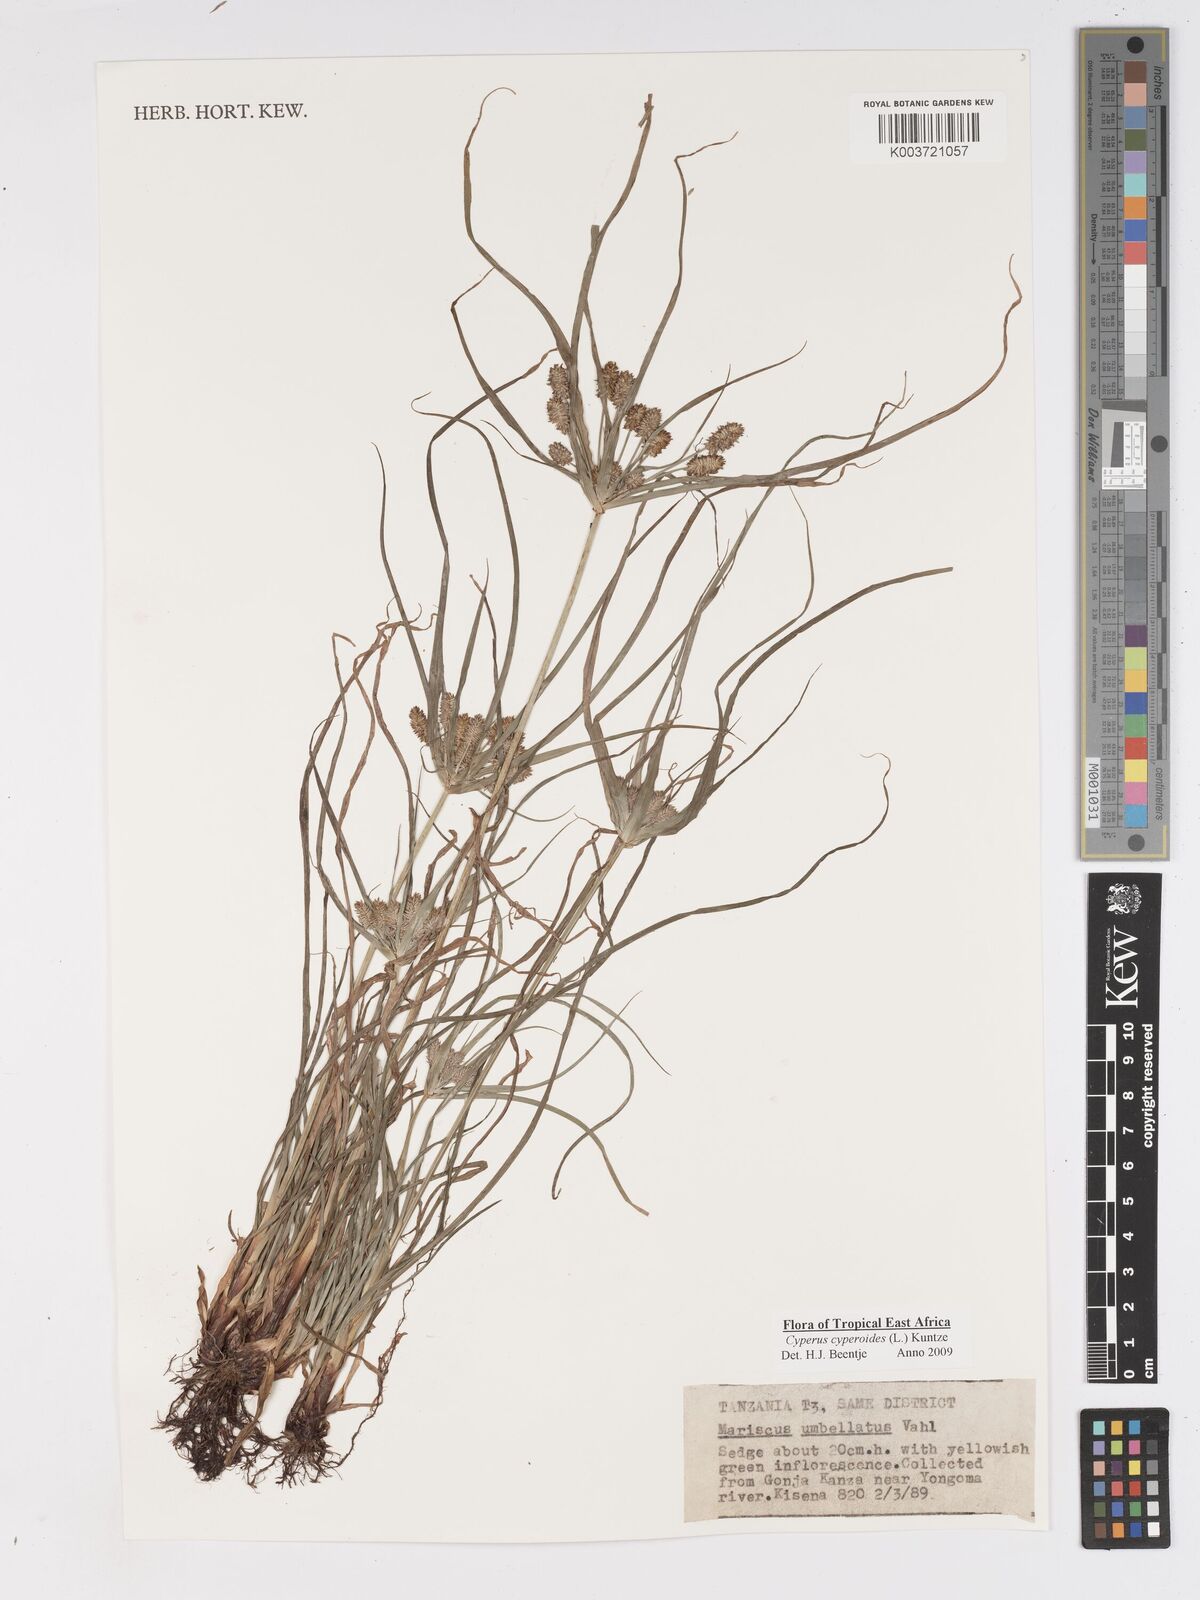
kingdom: Plantae
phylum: Tracheophyta
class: Liliopsida
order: Poales
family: Cyperaceae
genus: Cyperus
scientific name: Cyperus cyperoides
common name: Pacific island flat sedge
